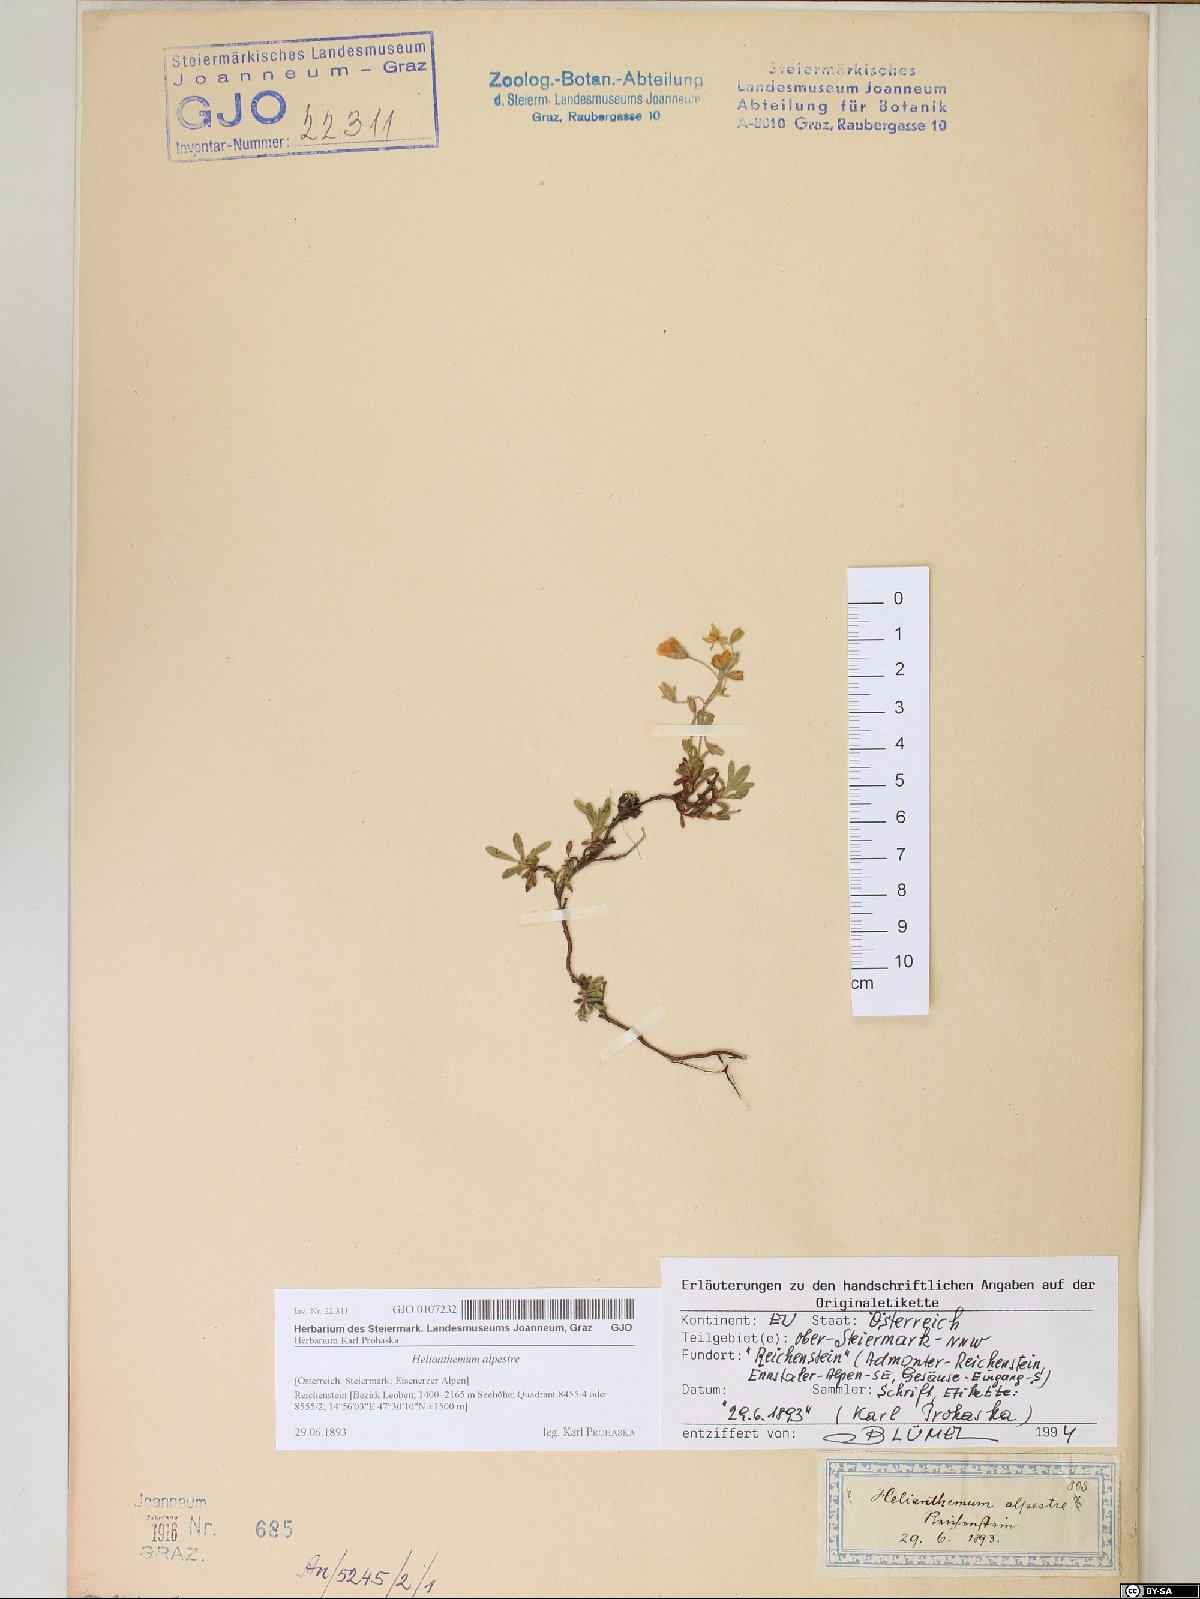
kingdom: Plantae
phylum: Tracheophyta
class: Magnoliopsida
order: Malvales
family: Cistaceae
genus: Helianthemum
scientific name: Helianthemum alpestre
